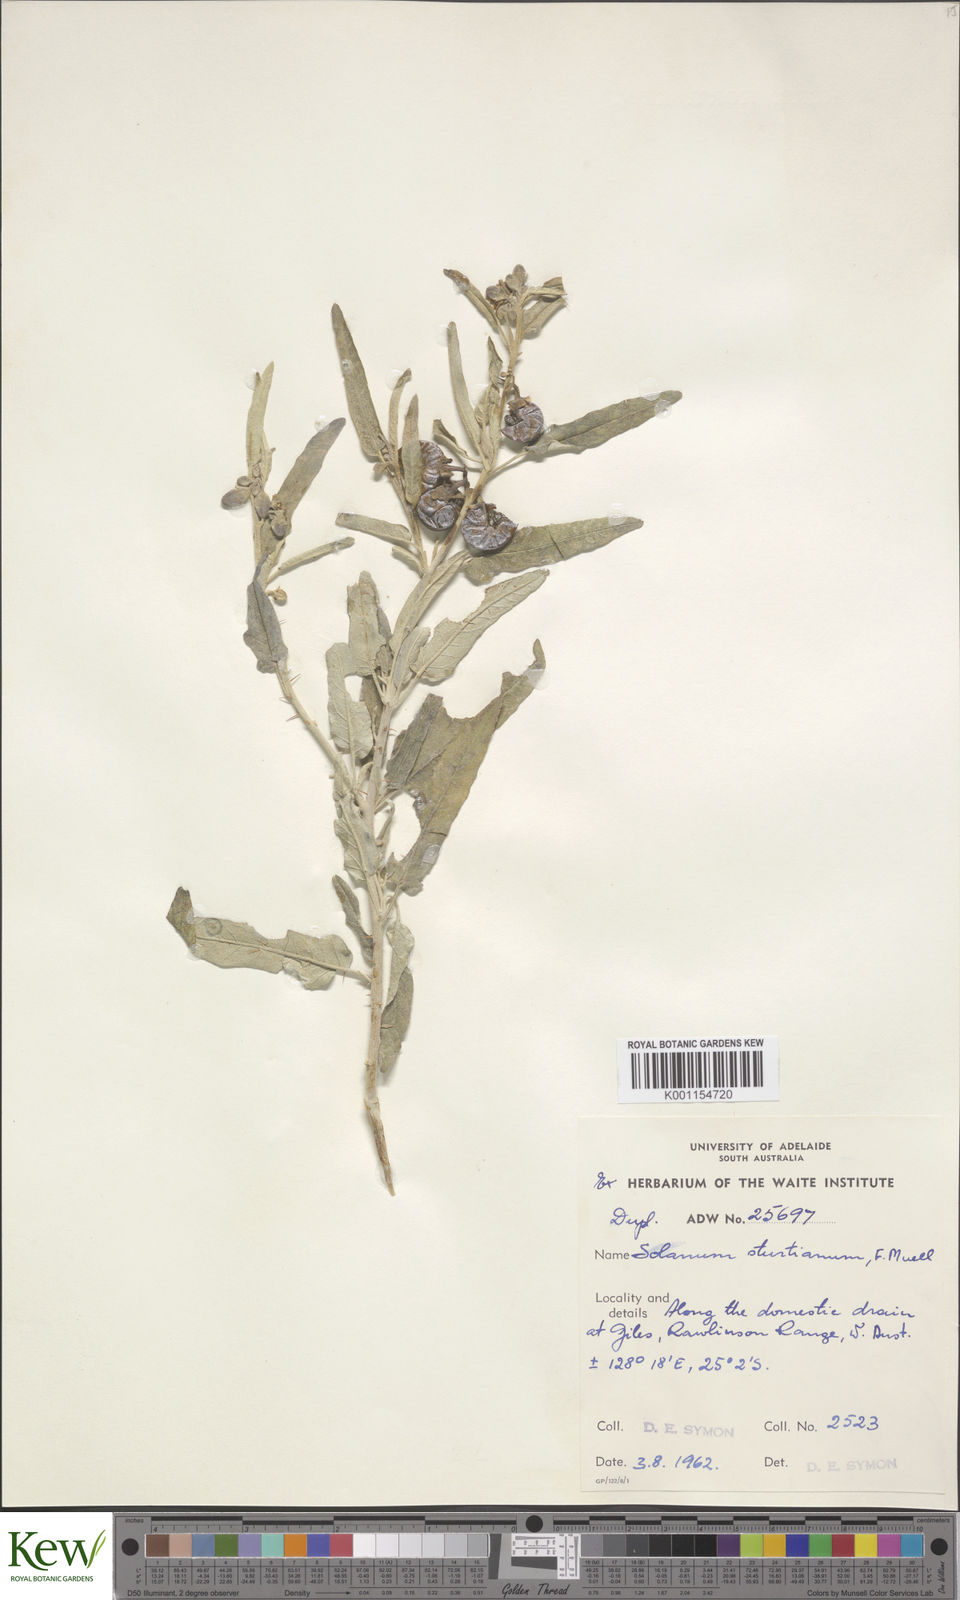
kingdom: Plantae
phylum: Tracheophyta
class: Magnoliopsida
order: Solanales
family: Solanaceae
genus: Solanum
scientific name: Solanum sturtianum
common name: Thargomindah nightshade
